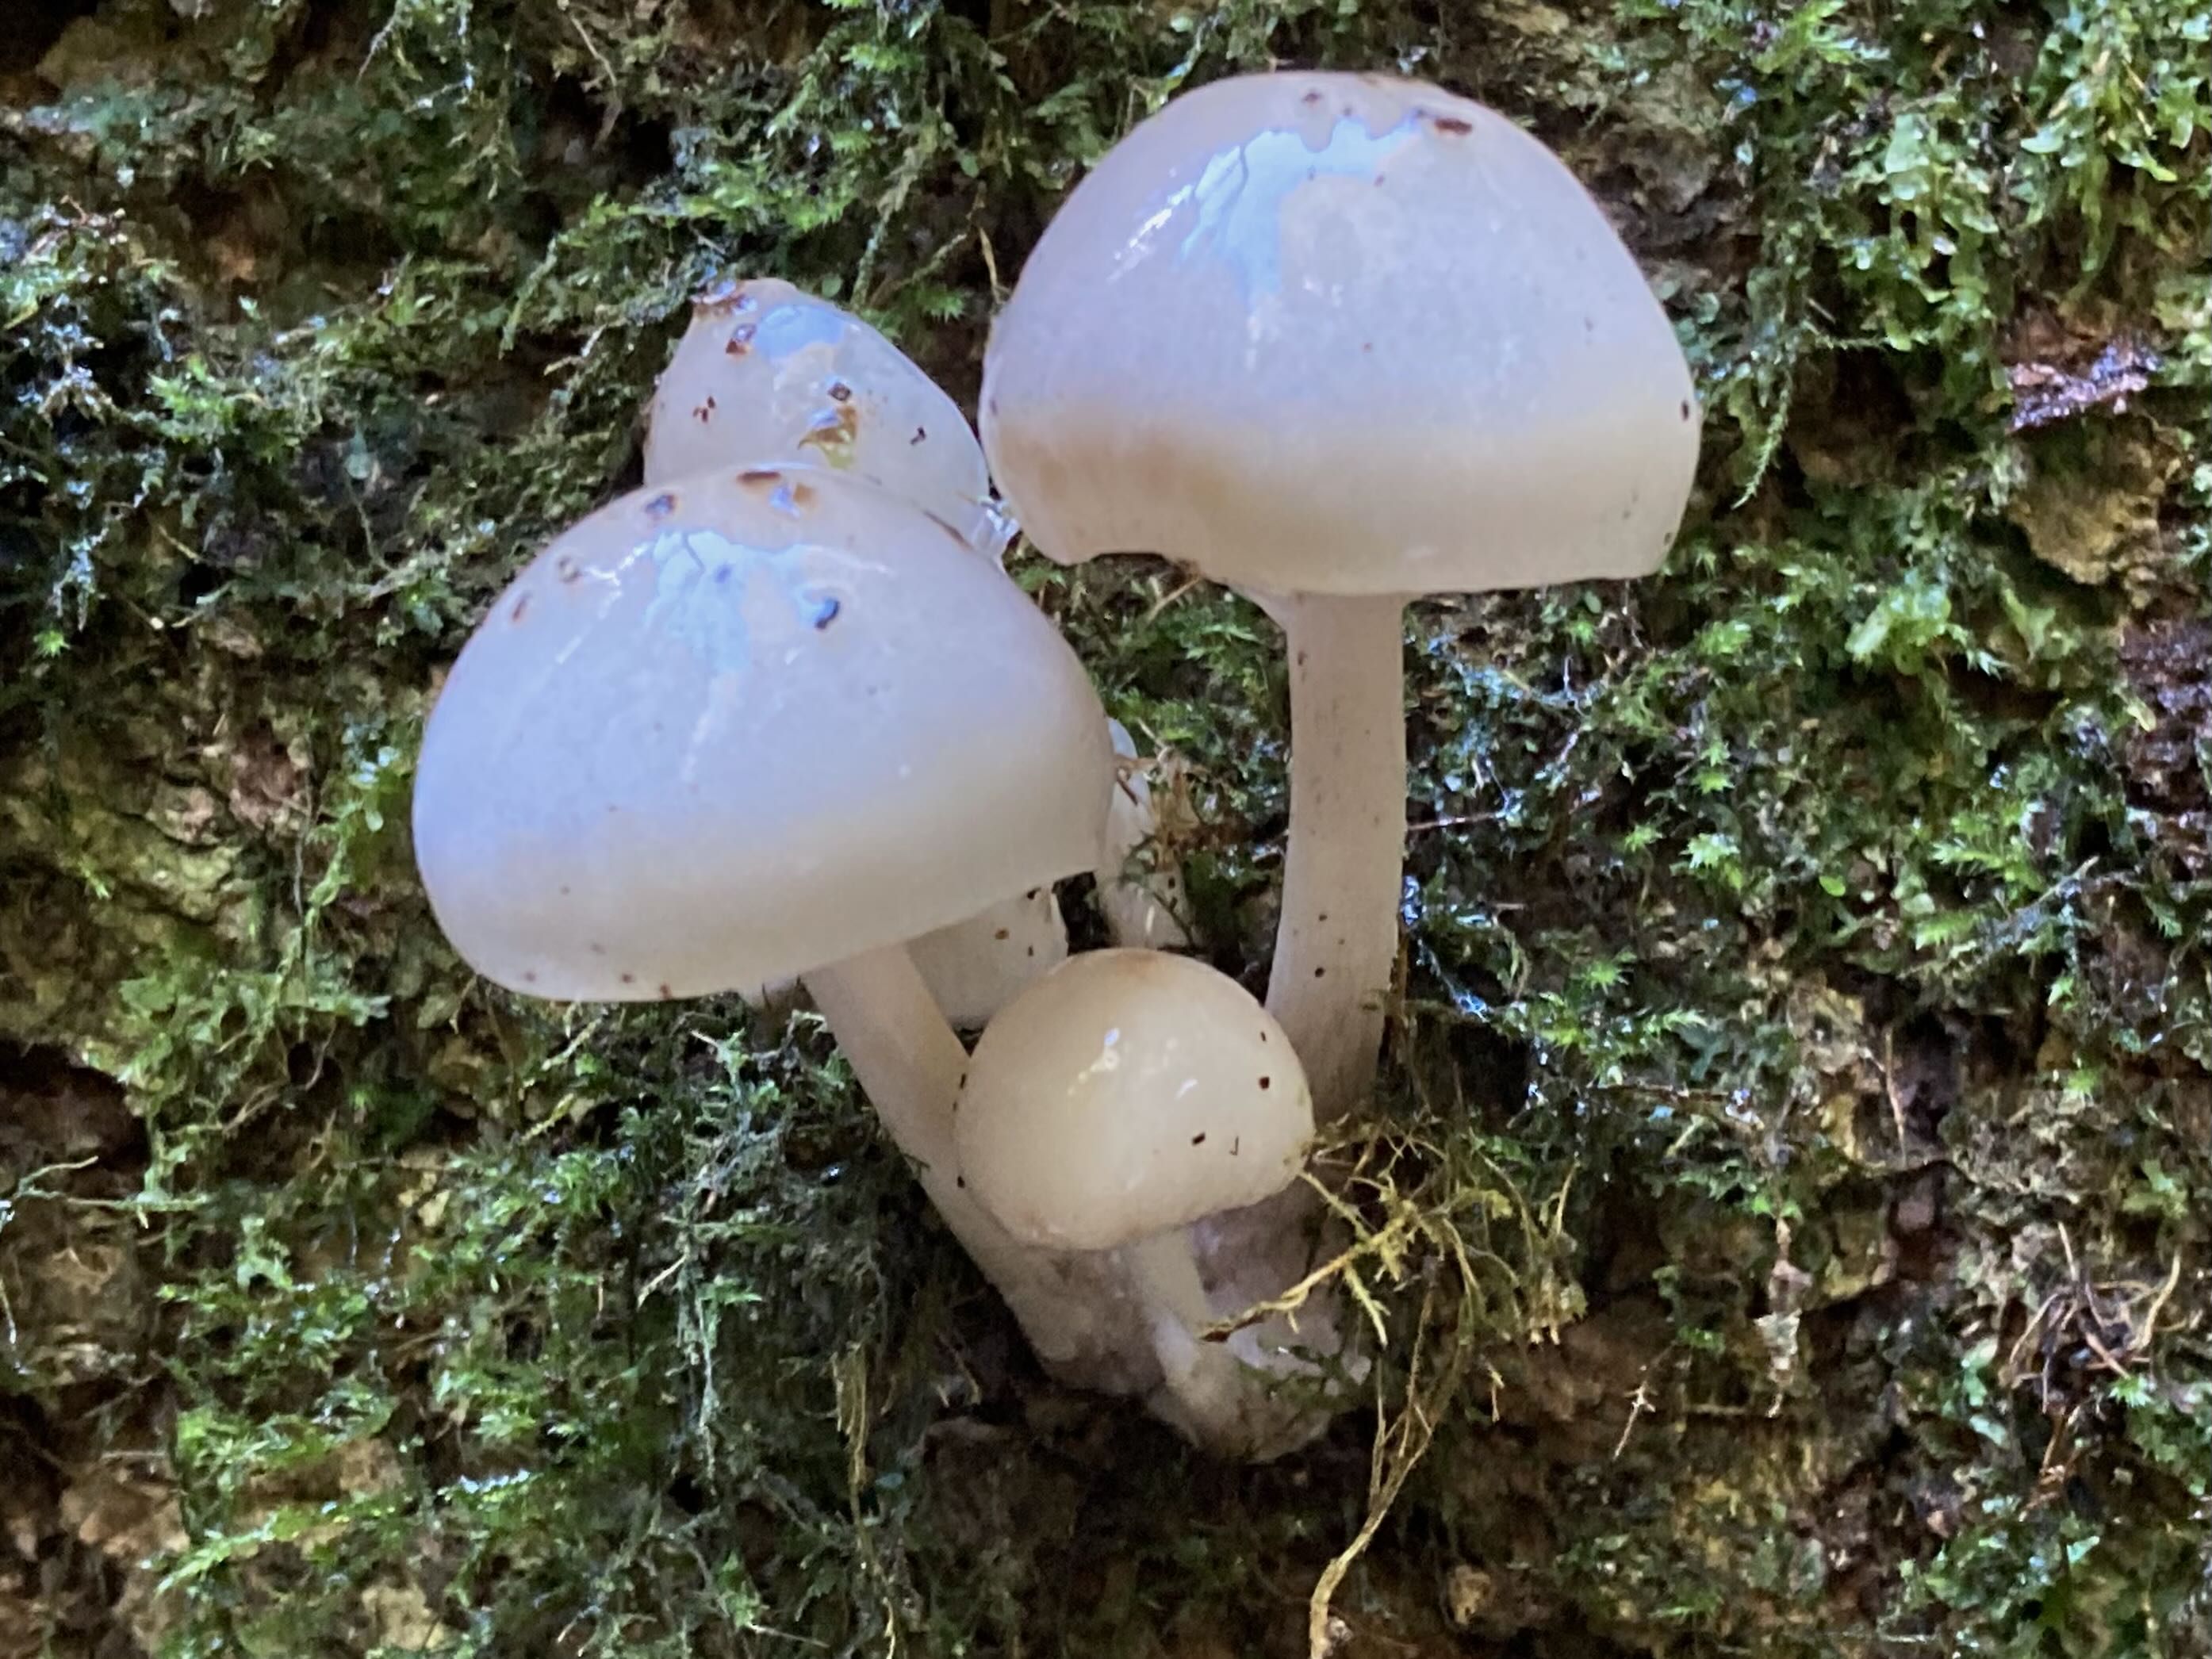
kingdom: Fungi
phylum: Basidiomycota
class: Agaricomycetes
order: Agaricales
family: Physalacriaceae
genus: Mucidula
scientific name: Mucidula mucida
